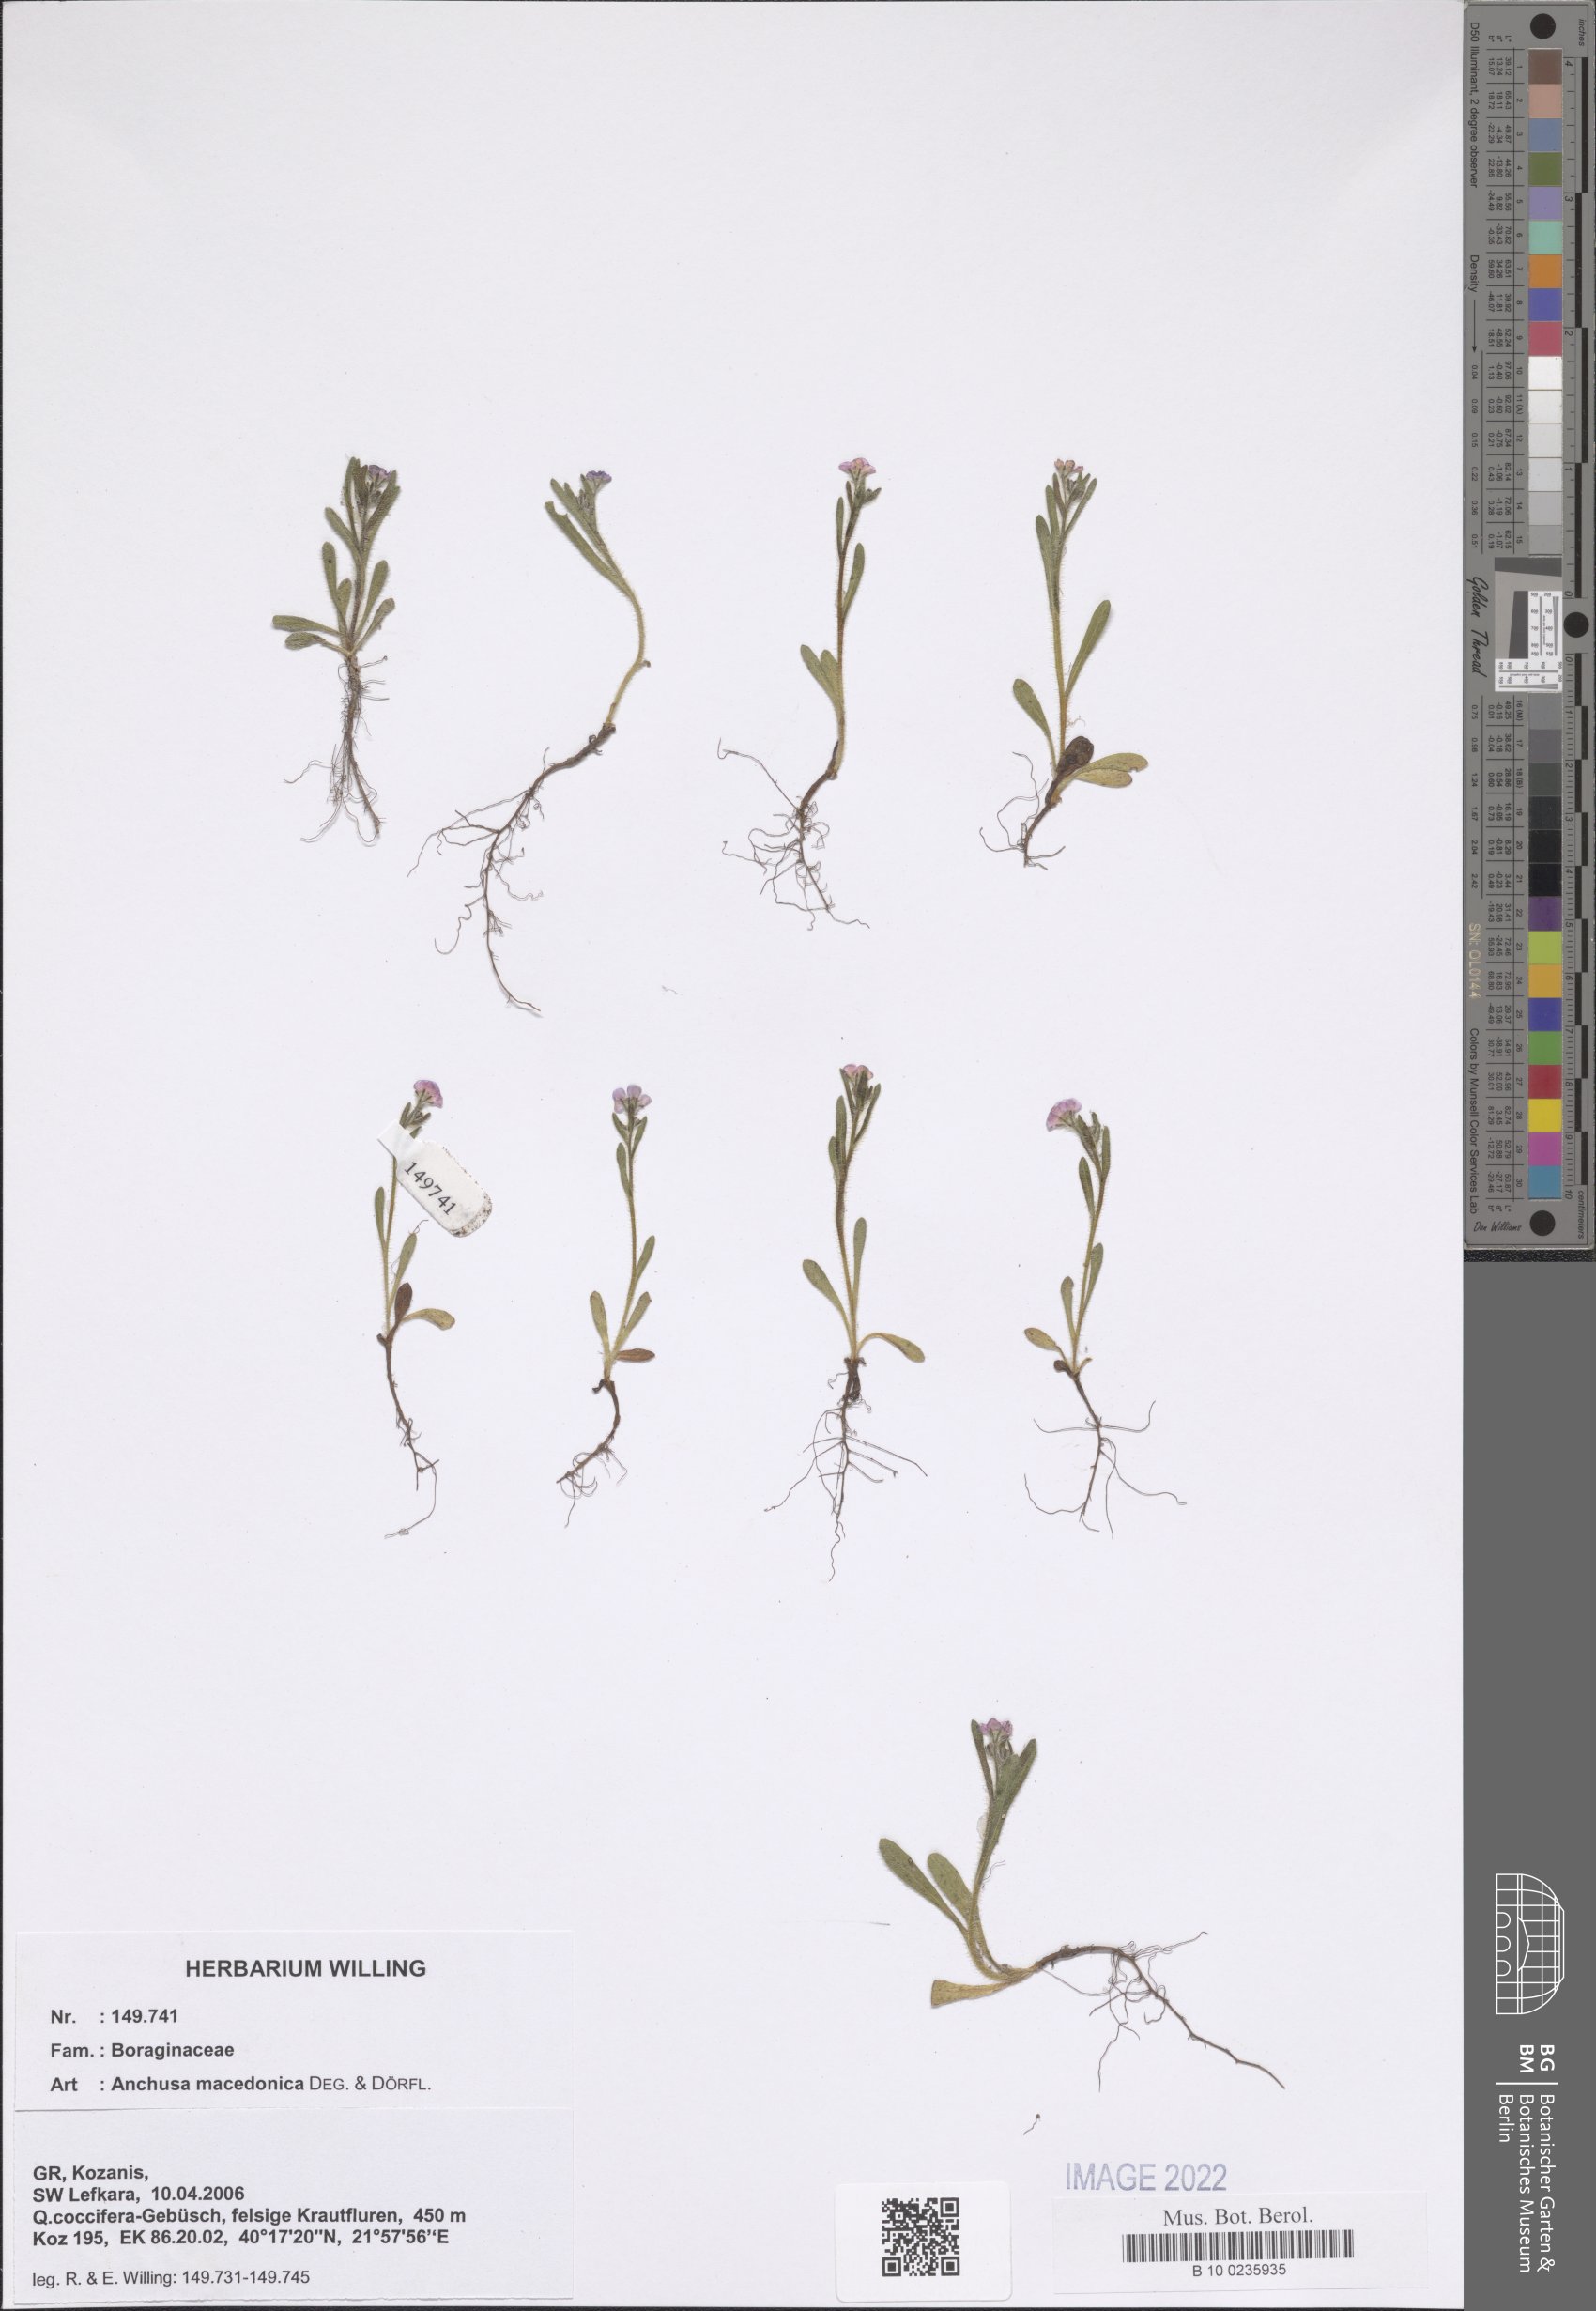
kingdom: Plantae
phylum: Tracheophyta
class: Magnoliopsida
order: Boraginales
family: Boraginaceae
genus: Anchusa
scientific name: Anchusa officinalis
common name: Alkanet
